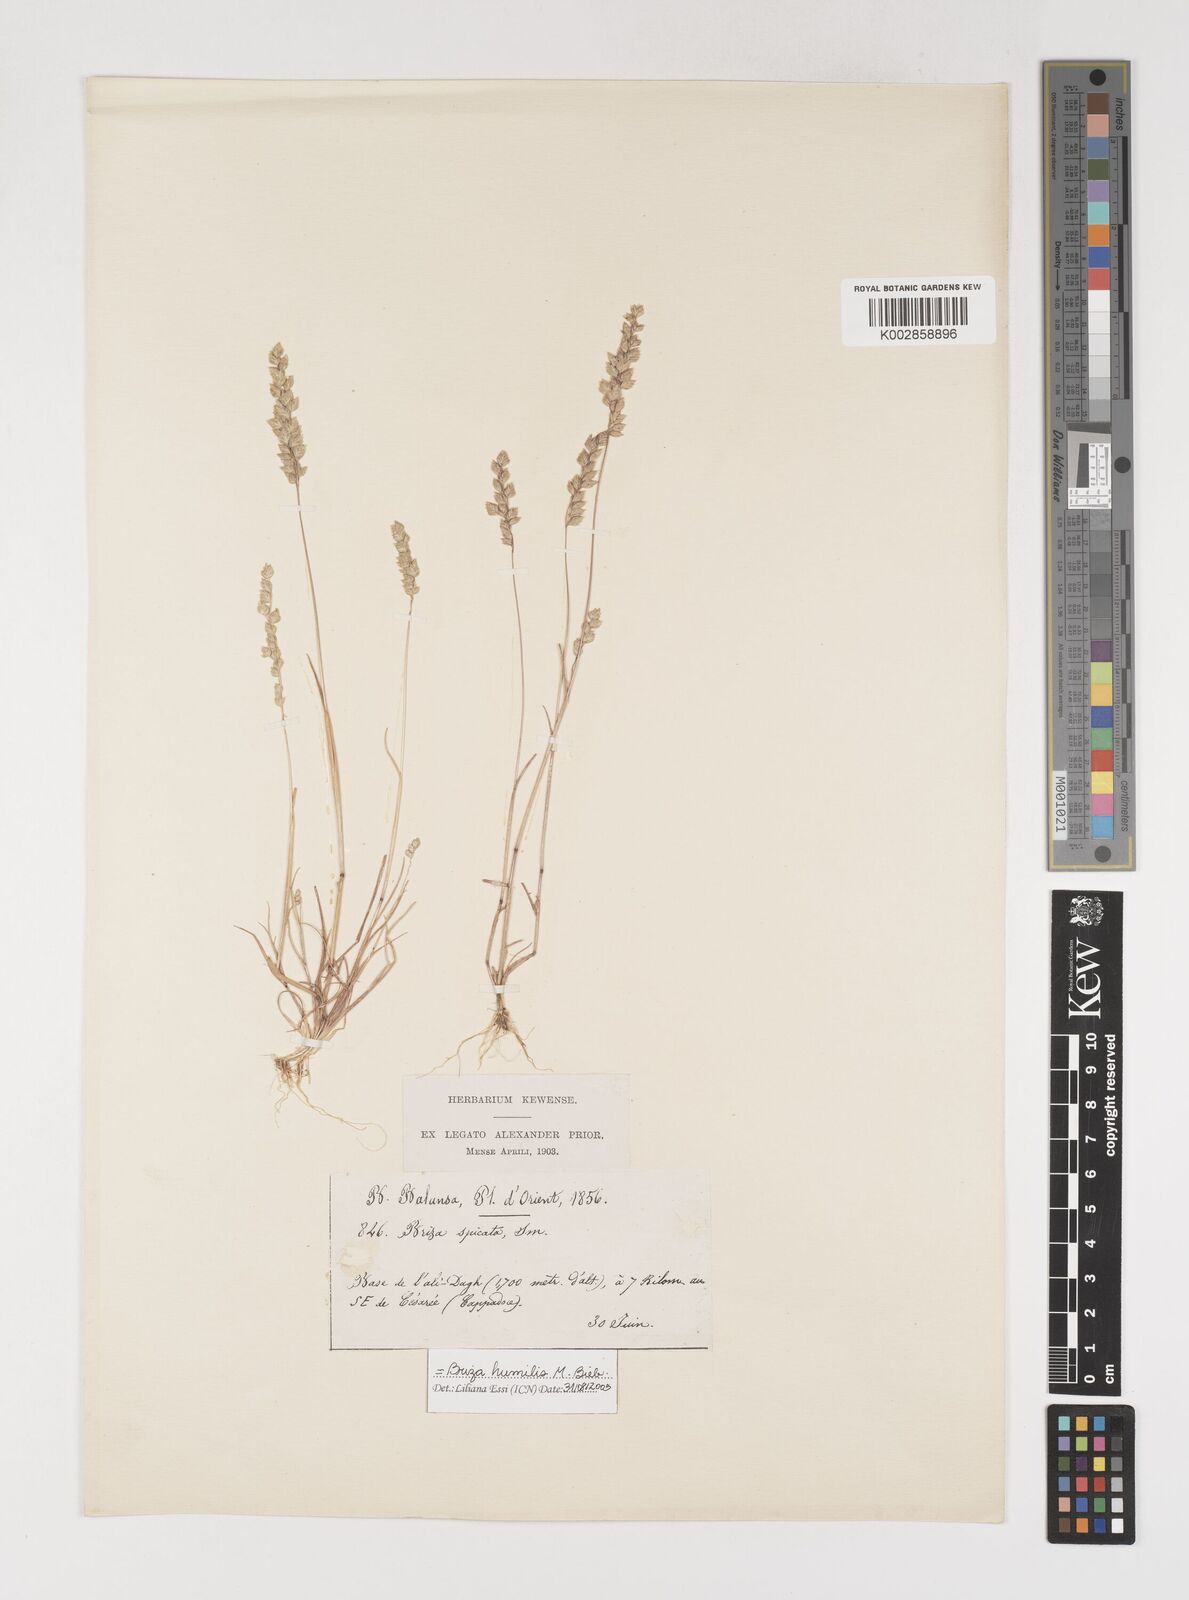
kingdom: Plantae
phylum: Tracheophyta
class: Liliopsida
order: Poales
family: Poaceae
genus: Briza
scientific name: Briza humilis
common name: Spiked quaking grass
